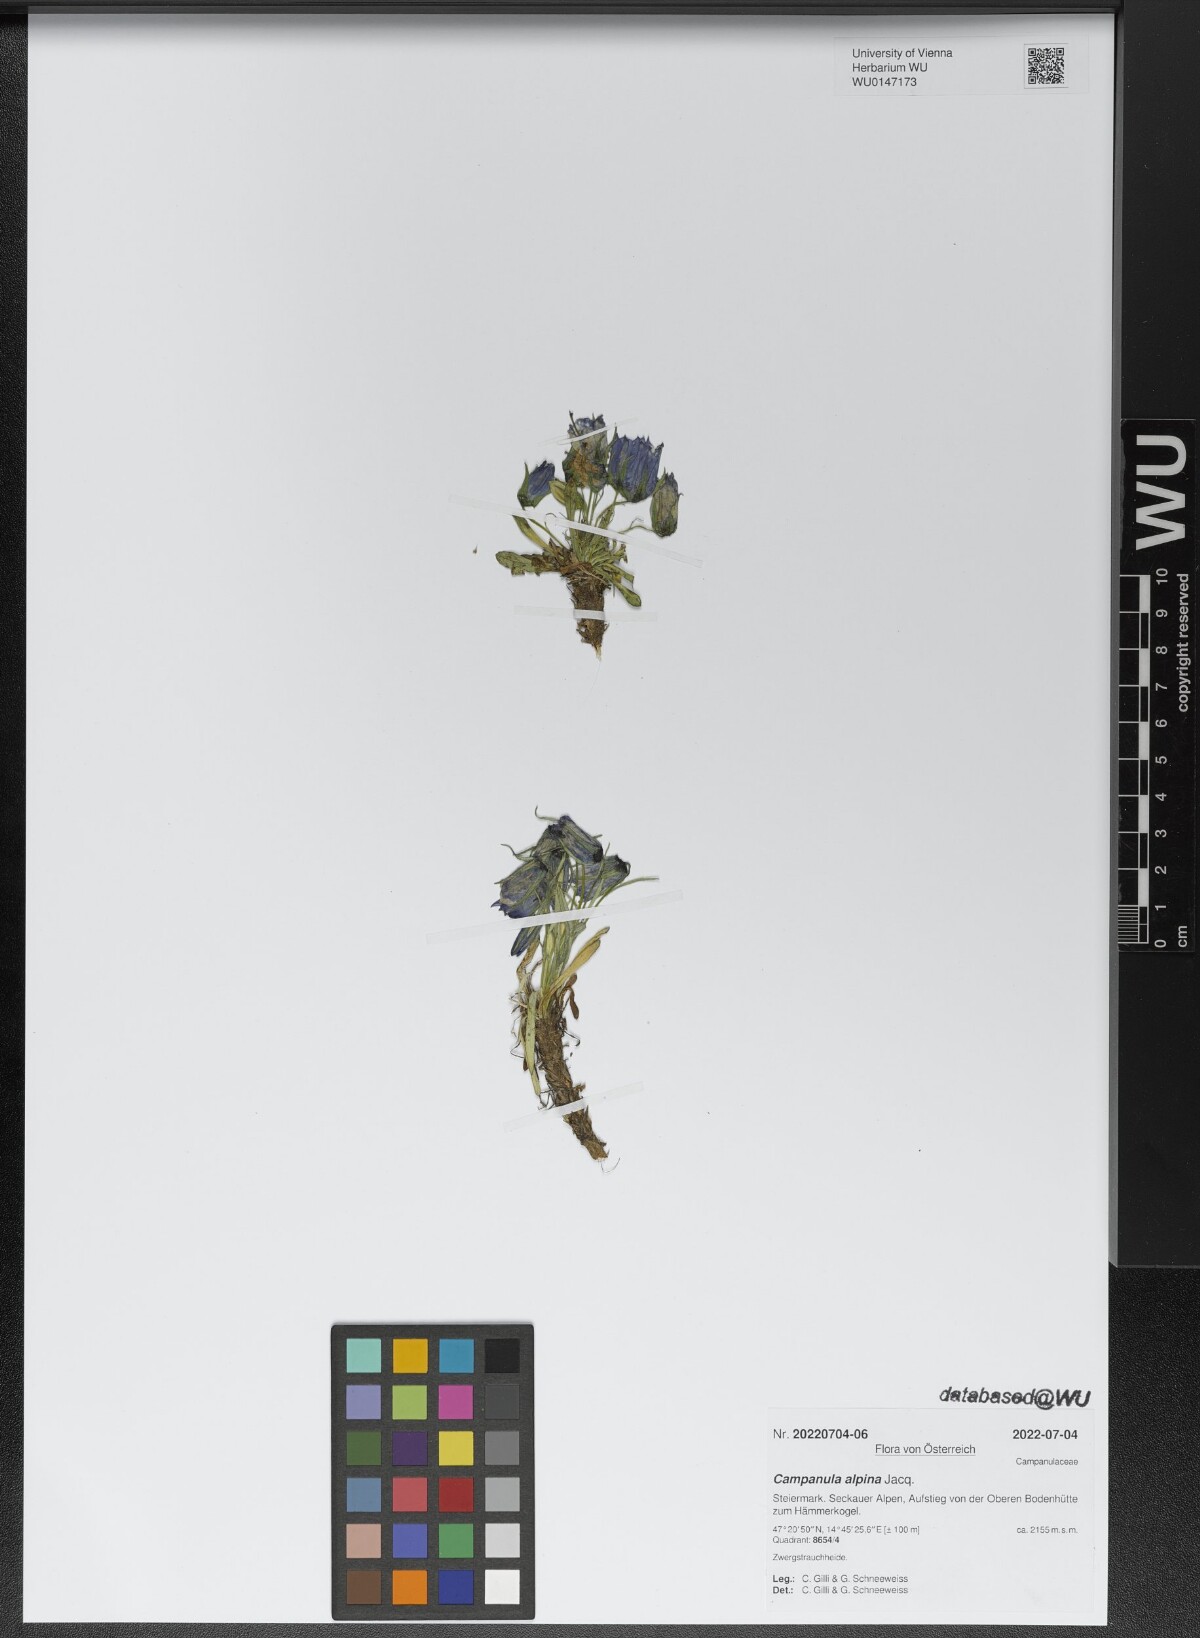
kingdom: Plantae
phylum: Tracheophyta
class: Magnoliopsida
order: Asterales
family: Campanulaceae
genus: Campanula
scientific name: Campanula alpina
